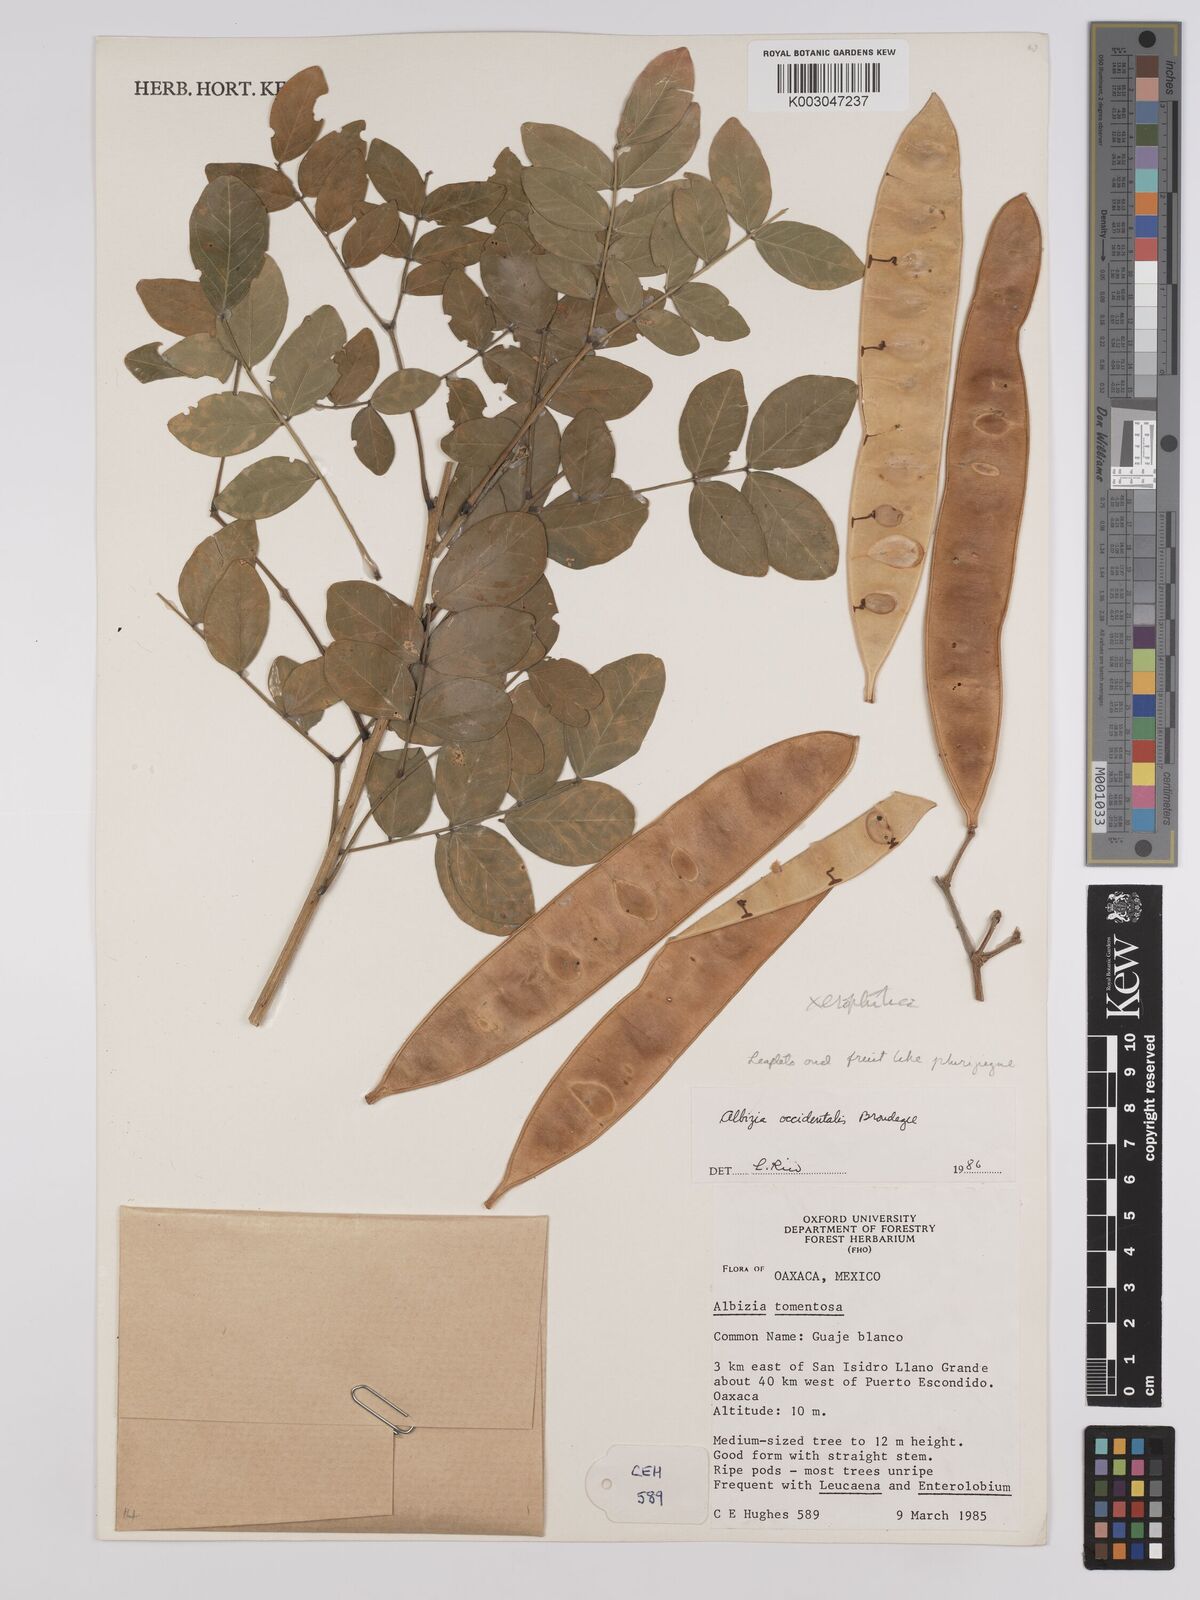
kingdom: Plantae
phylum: Tracheophyta
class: Magnoliopsida
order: Fabales
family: Fabaceae
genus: Albizia
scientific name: Albizia occidentalis
